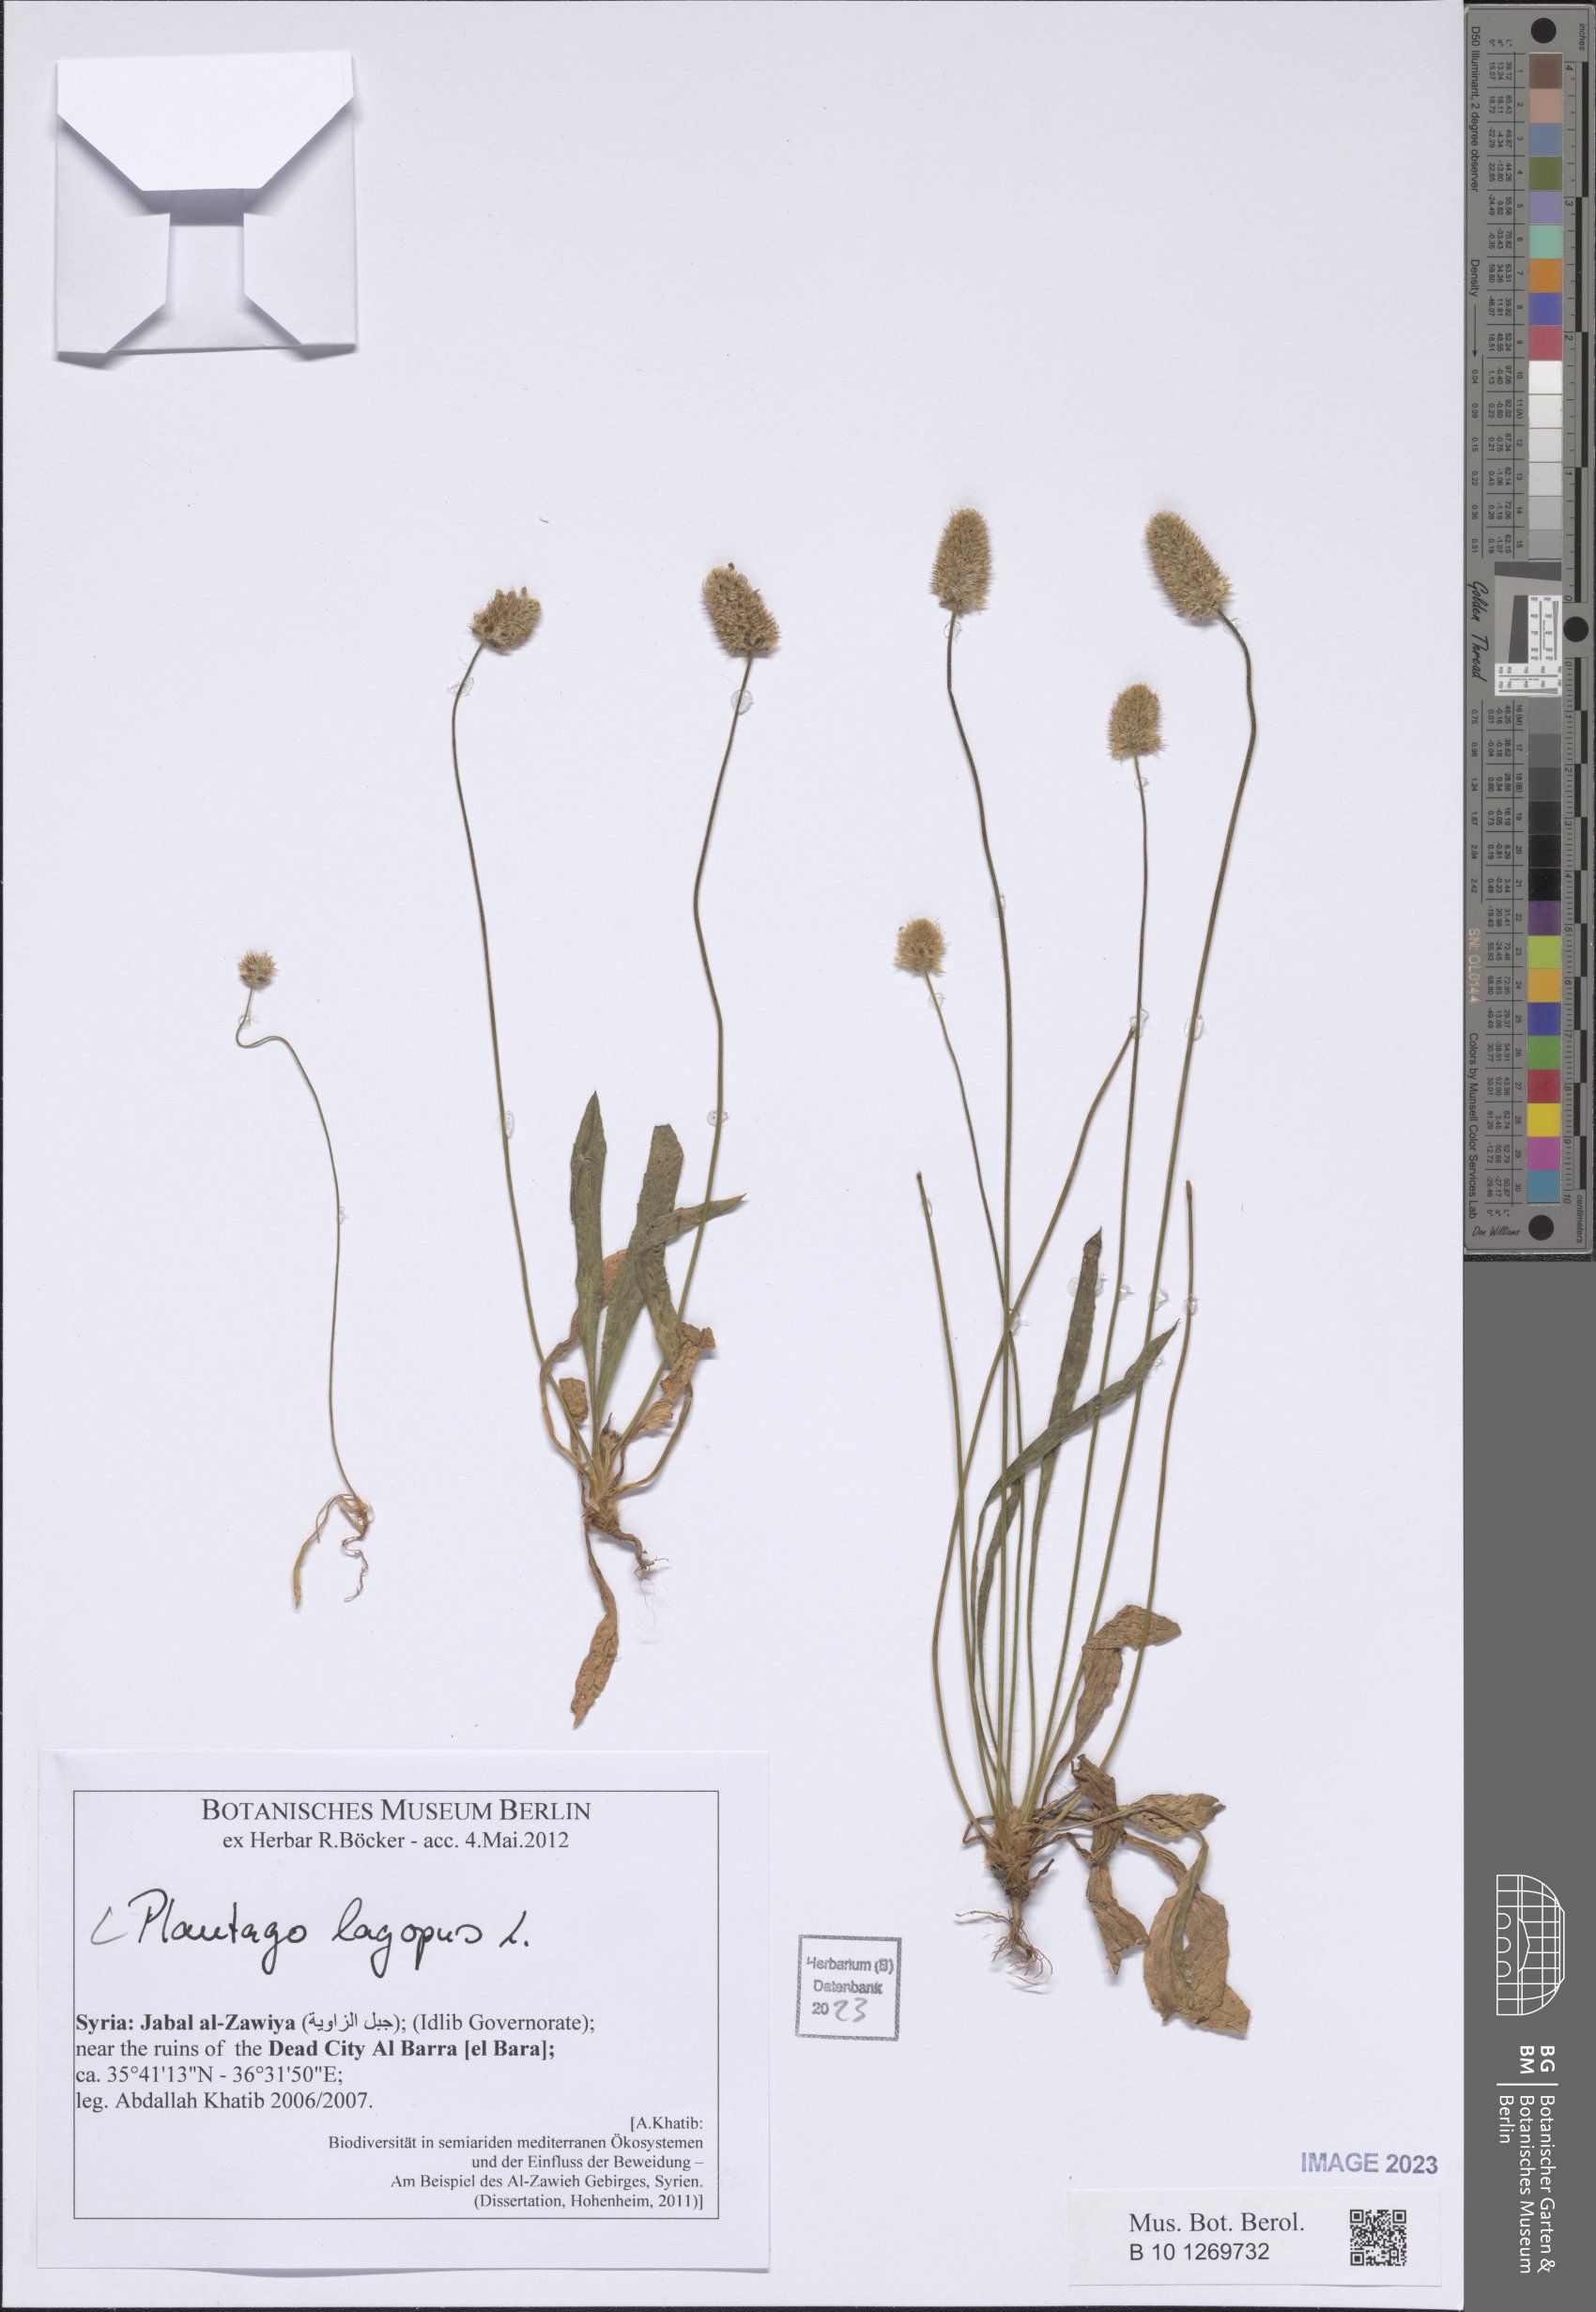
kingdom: Plantae
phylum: Tracheophyta
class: Magnoliopsida
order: Lamiales
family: Plantaginaceae
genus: Plantago
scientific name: Plantago lagopus
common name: Hare-foot plantain
